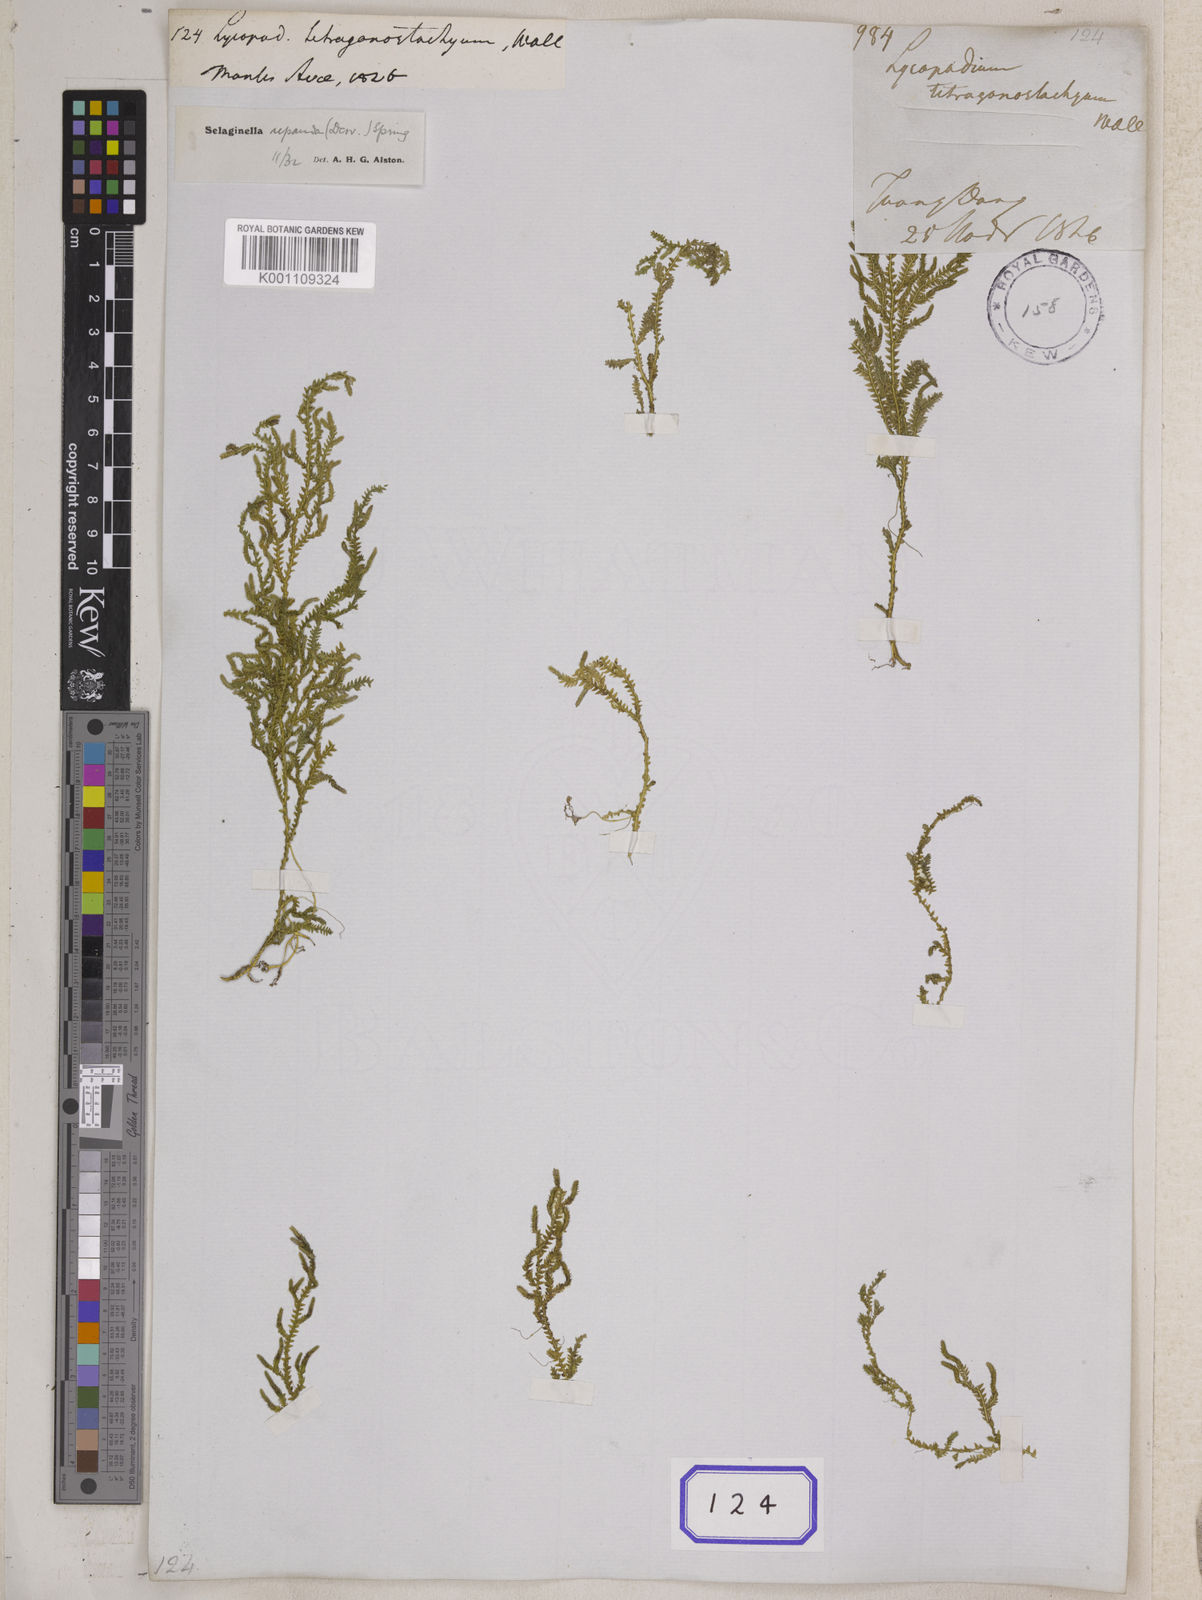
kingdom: Plantae
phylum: Tracheophyta
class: Lycopodiopsida
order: Selaginellales
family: Selaginellaceae
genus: Selaginella
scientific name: Selaginella repanda
